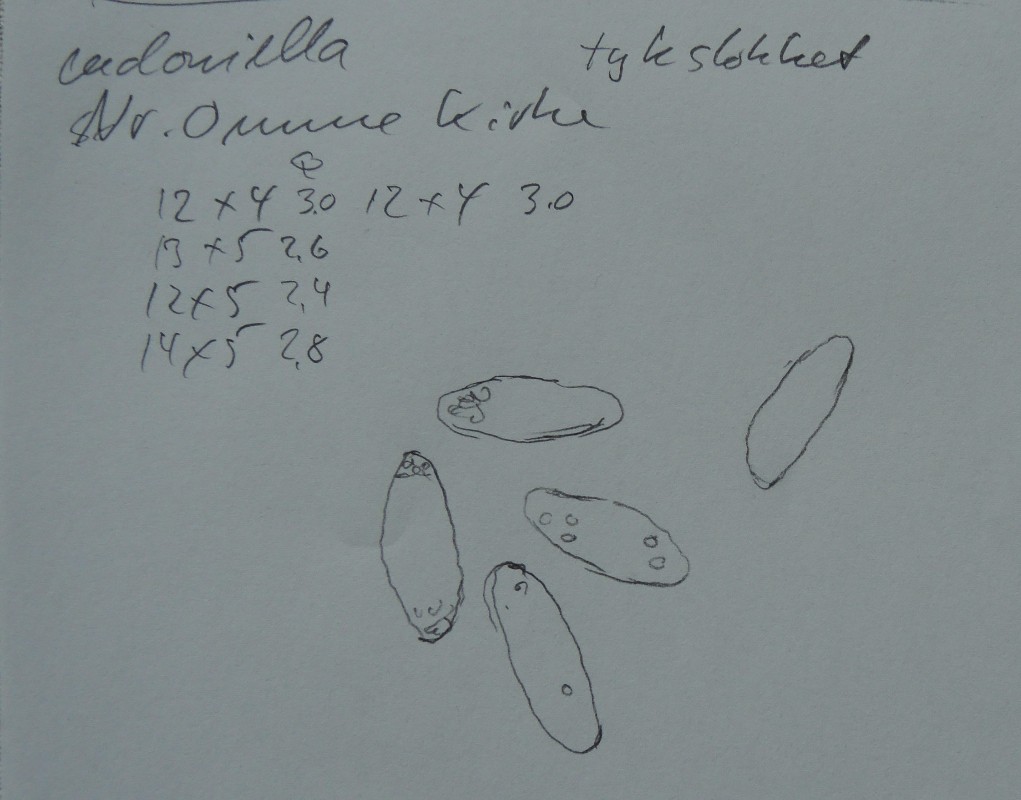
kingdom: Fungi
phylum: Ascomycota
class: Leotiomycetes
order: Helotiales
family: Tricladiaceae
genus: Cudoniella
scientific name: Cudoniella tenuispora
